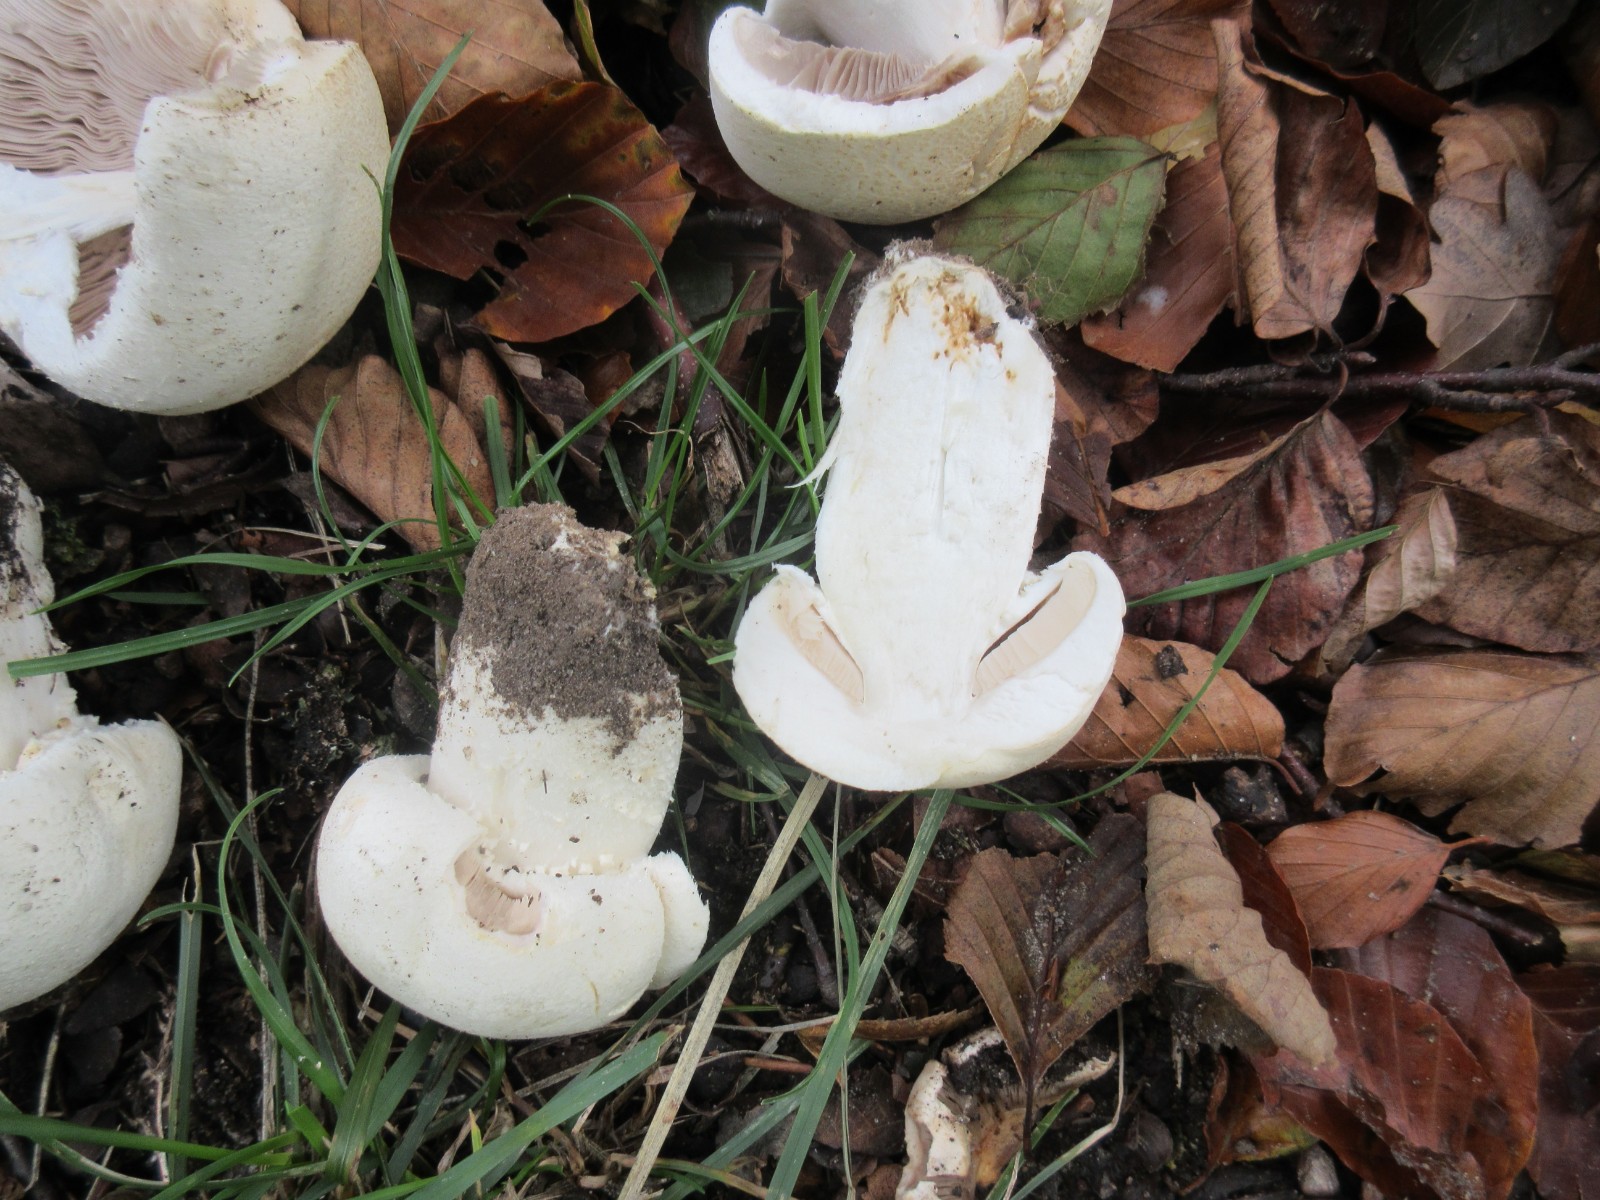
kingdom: Fungi
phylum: Basidiomycota
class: Agaricomycetes
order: Agaricales
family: Agaricaceae
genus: Agaricus
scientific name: Agaricus
